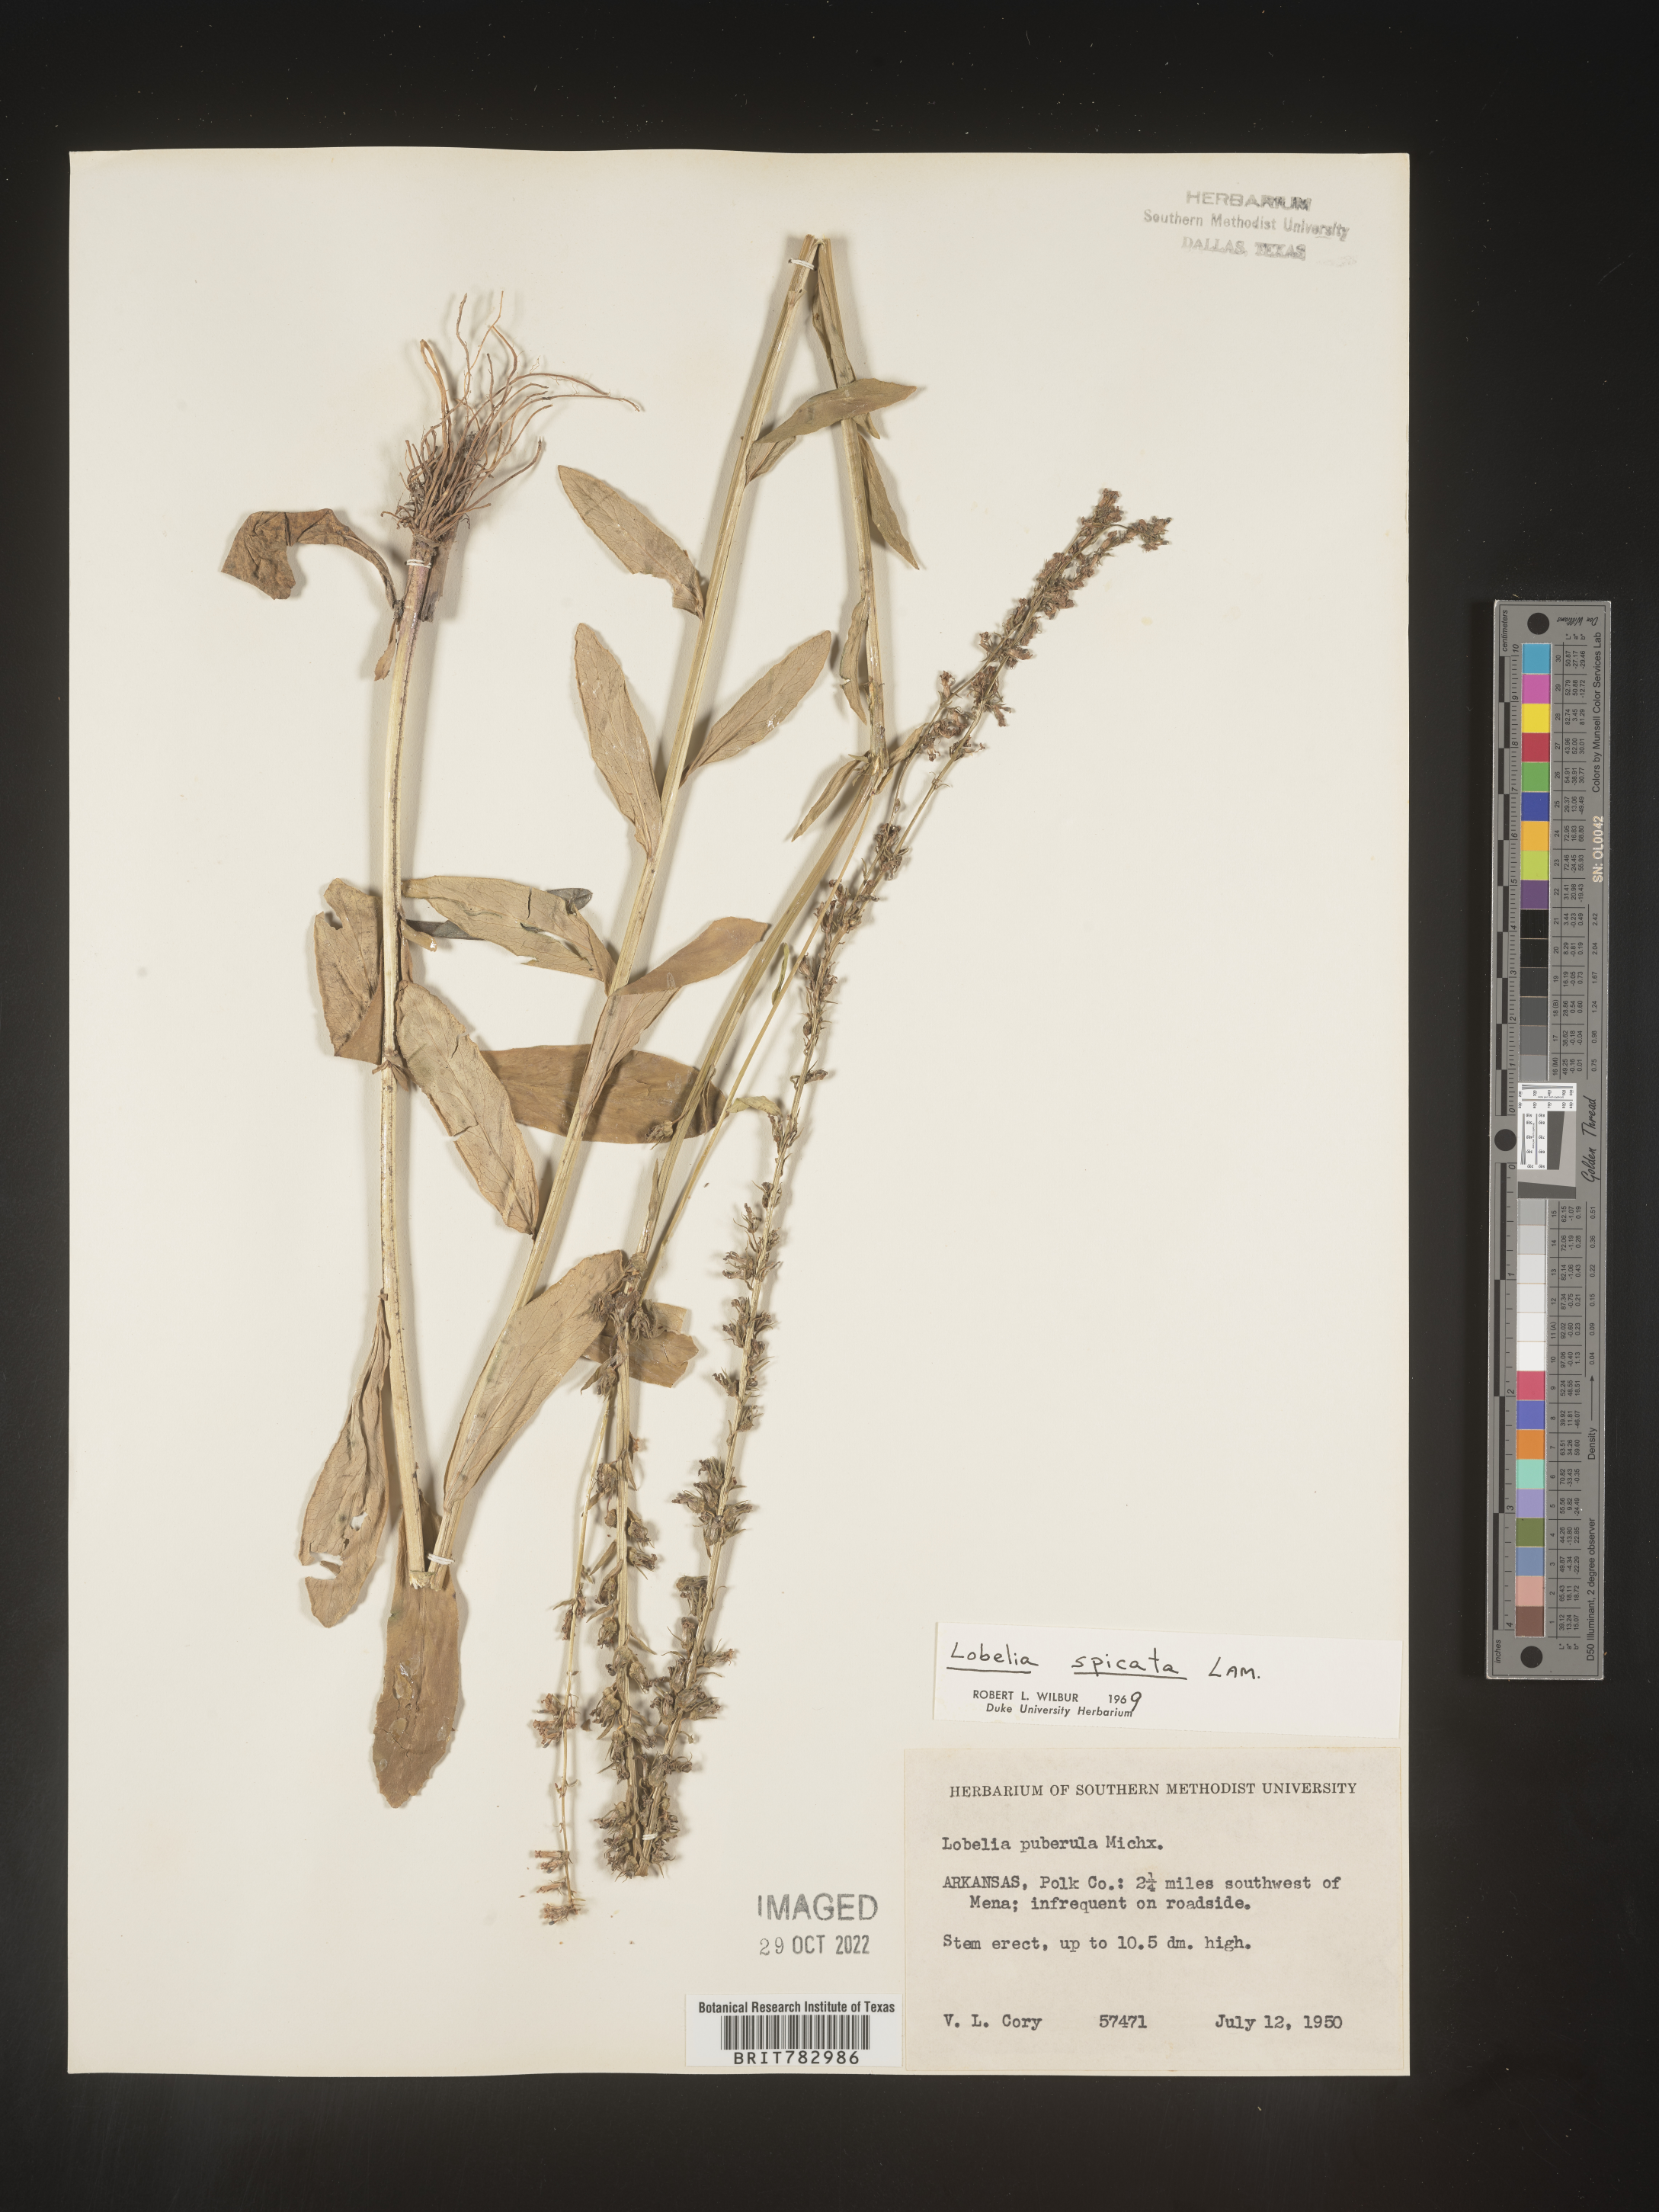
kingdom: Plantae
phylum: Tracheophyta
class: Magnoliopsida
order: Asterales
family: Campanulaceae
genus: Lobelia
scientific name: Lobelia spicata
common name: Pale-spike lobelia
